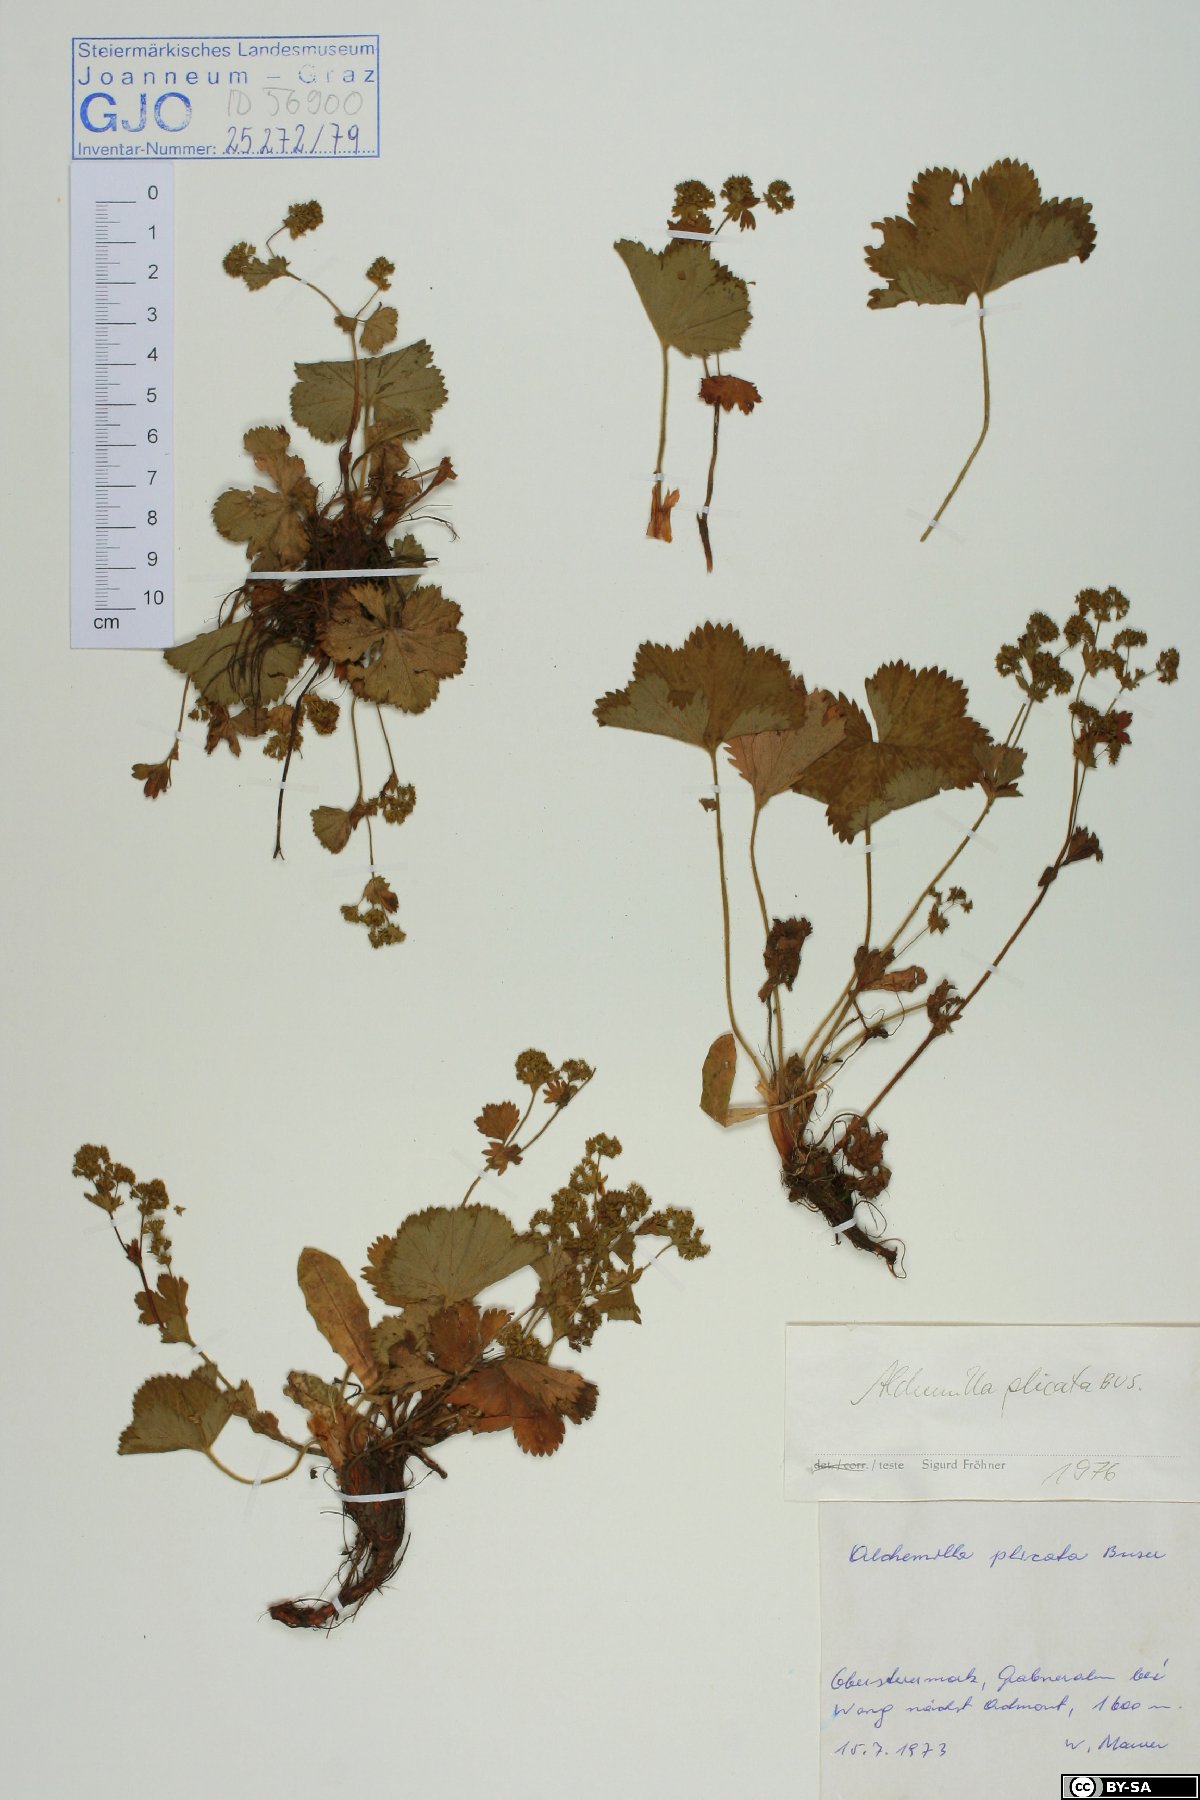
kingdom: Plantae
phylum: Tracheophyta
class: Magnoliopsida
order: Rosales
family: Rosaceae
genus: Alchemilla
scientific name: Alchemilla plicata
